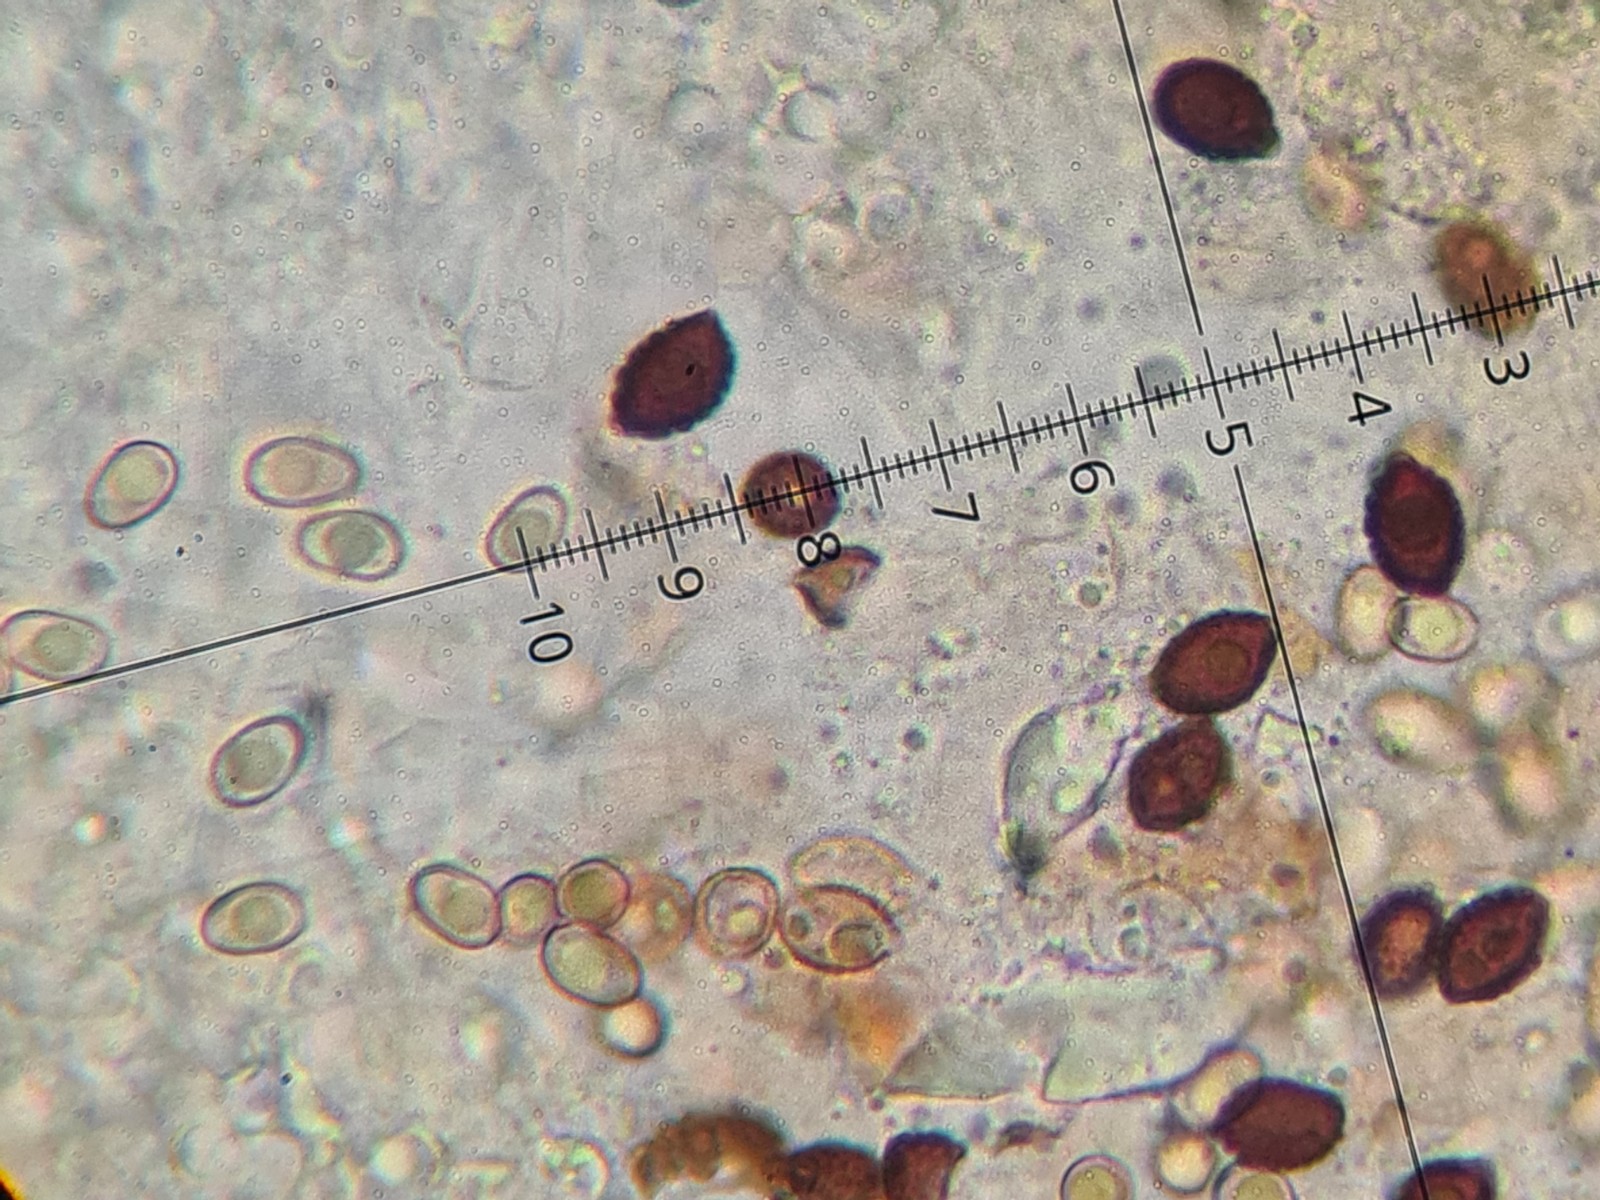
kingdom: Fungi
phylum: Basidiomycota
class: Agaricomycetes
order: Boletales
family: Paxillaceae
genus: Paxillus
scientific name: Paxillus rubicundulus
